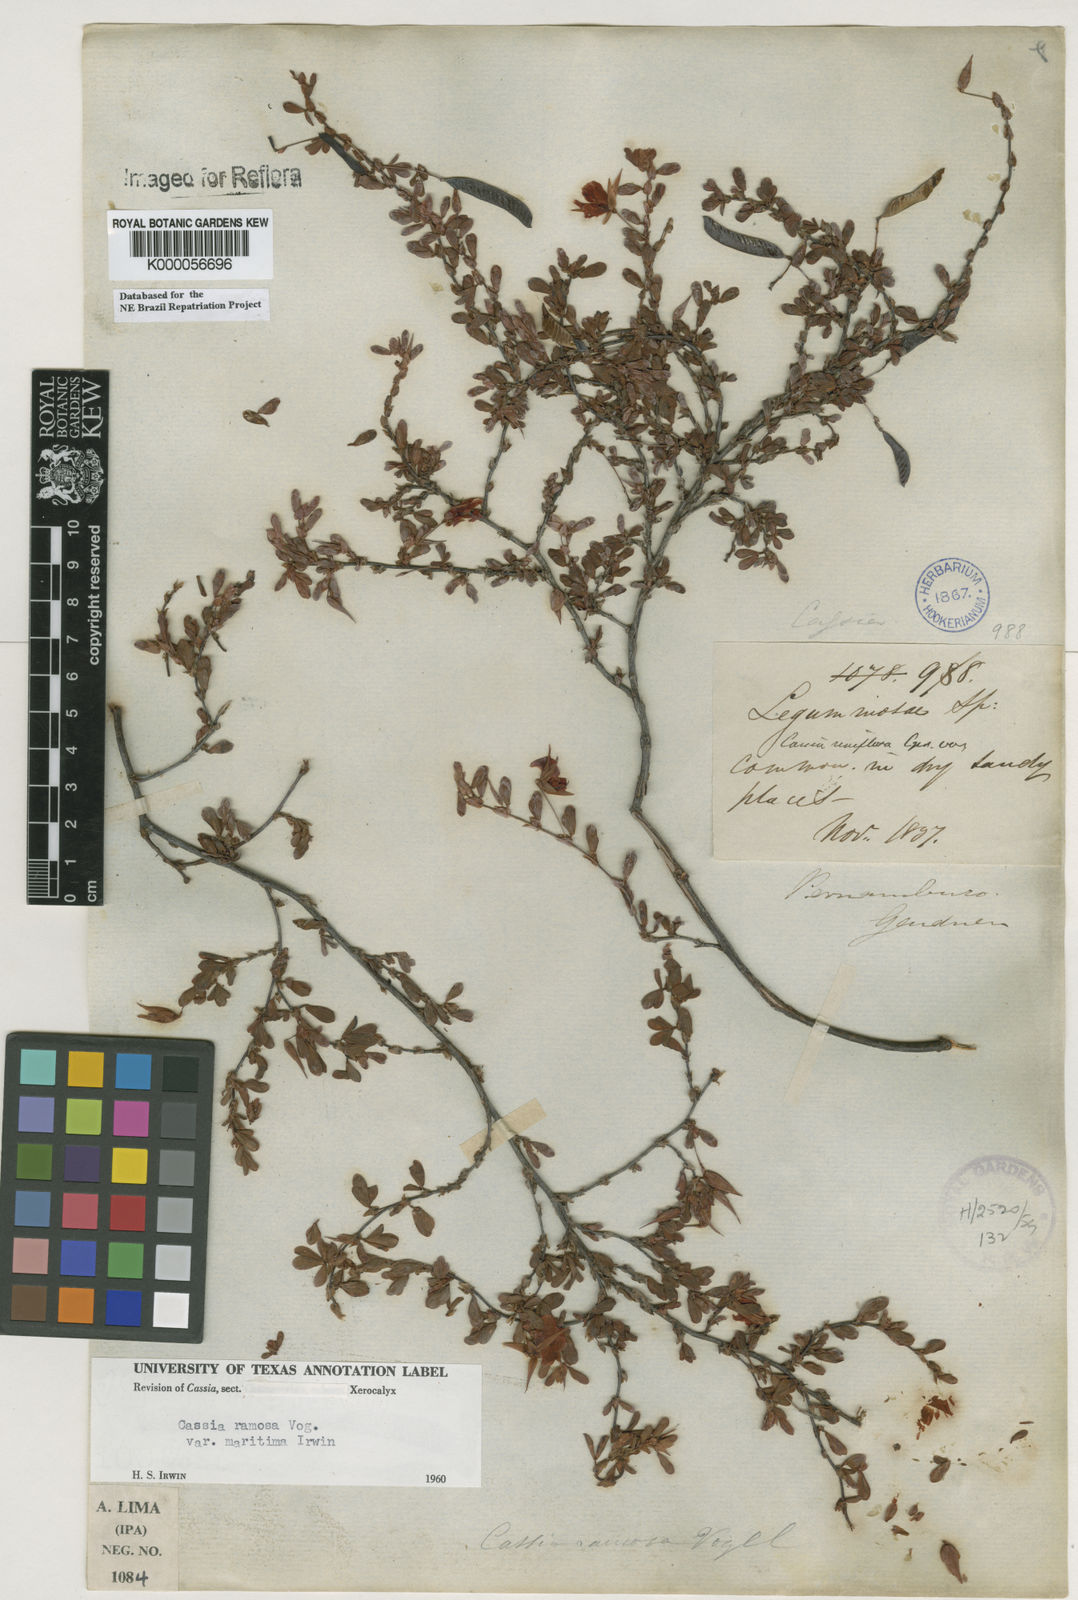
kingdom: Plantae
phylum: Tracheophyta
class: Magnoliopsida
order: Fabales
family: Fabaceae
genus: Chamaecrista
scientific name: Chamaecrista ramosa
